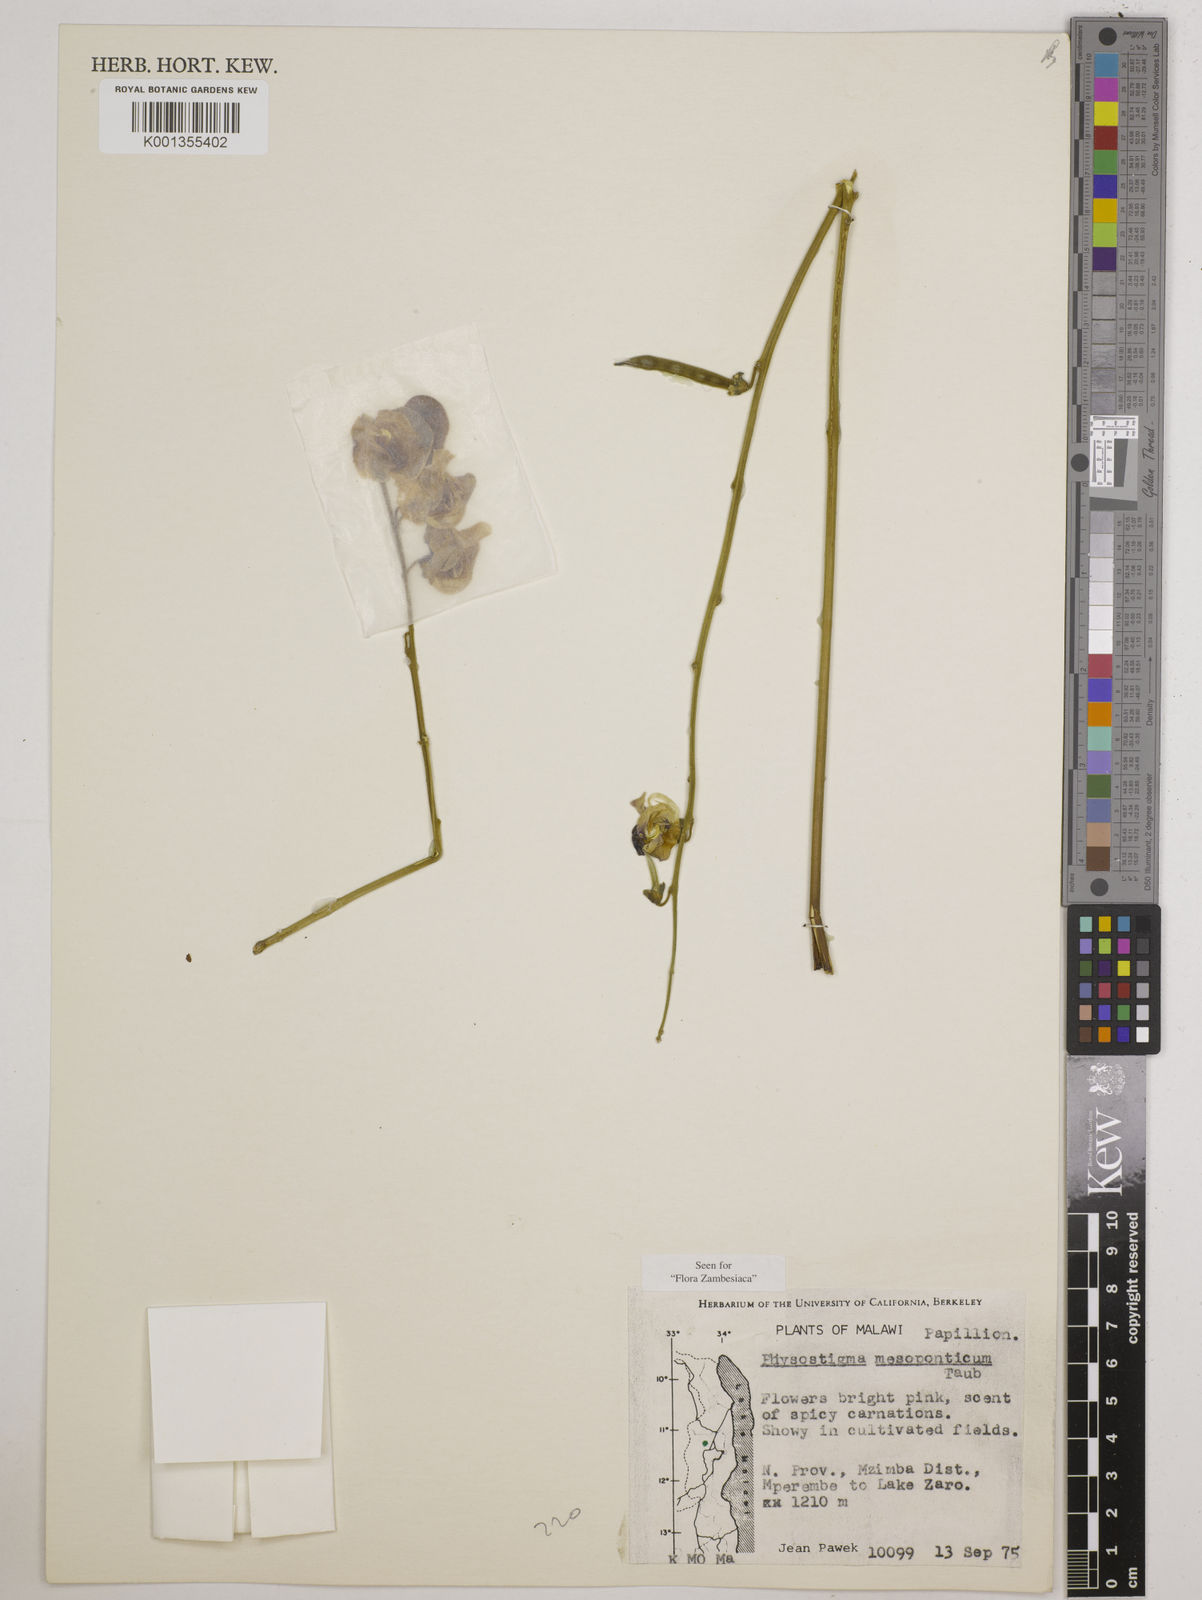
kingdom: Plantae
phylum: Tracheophyta
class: Magnoliopsida
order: Fabales
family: Fabaceae
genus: Physostigma
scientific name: Physostigma mesoponticum
